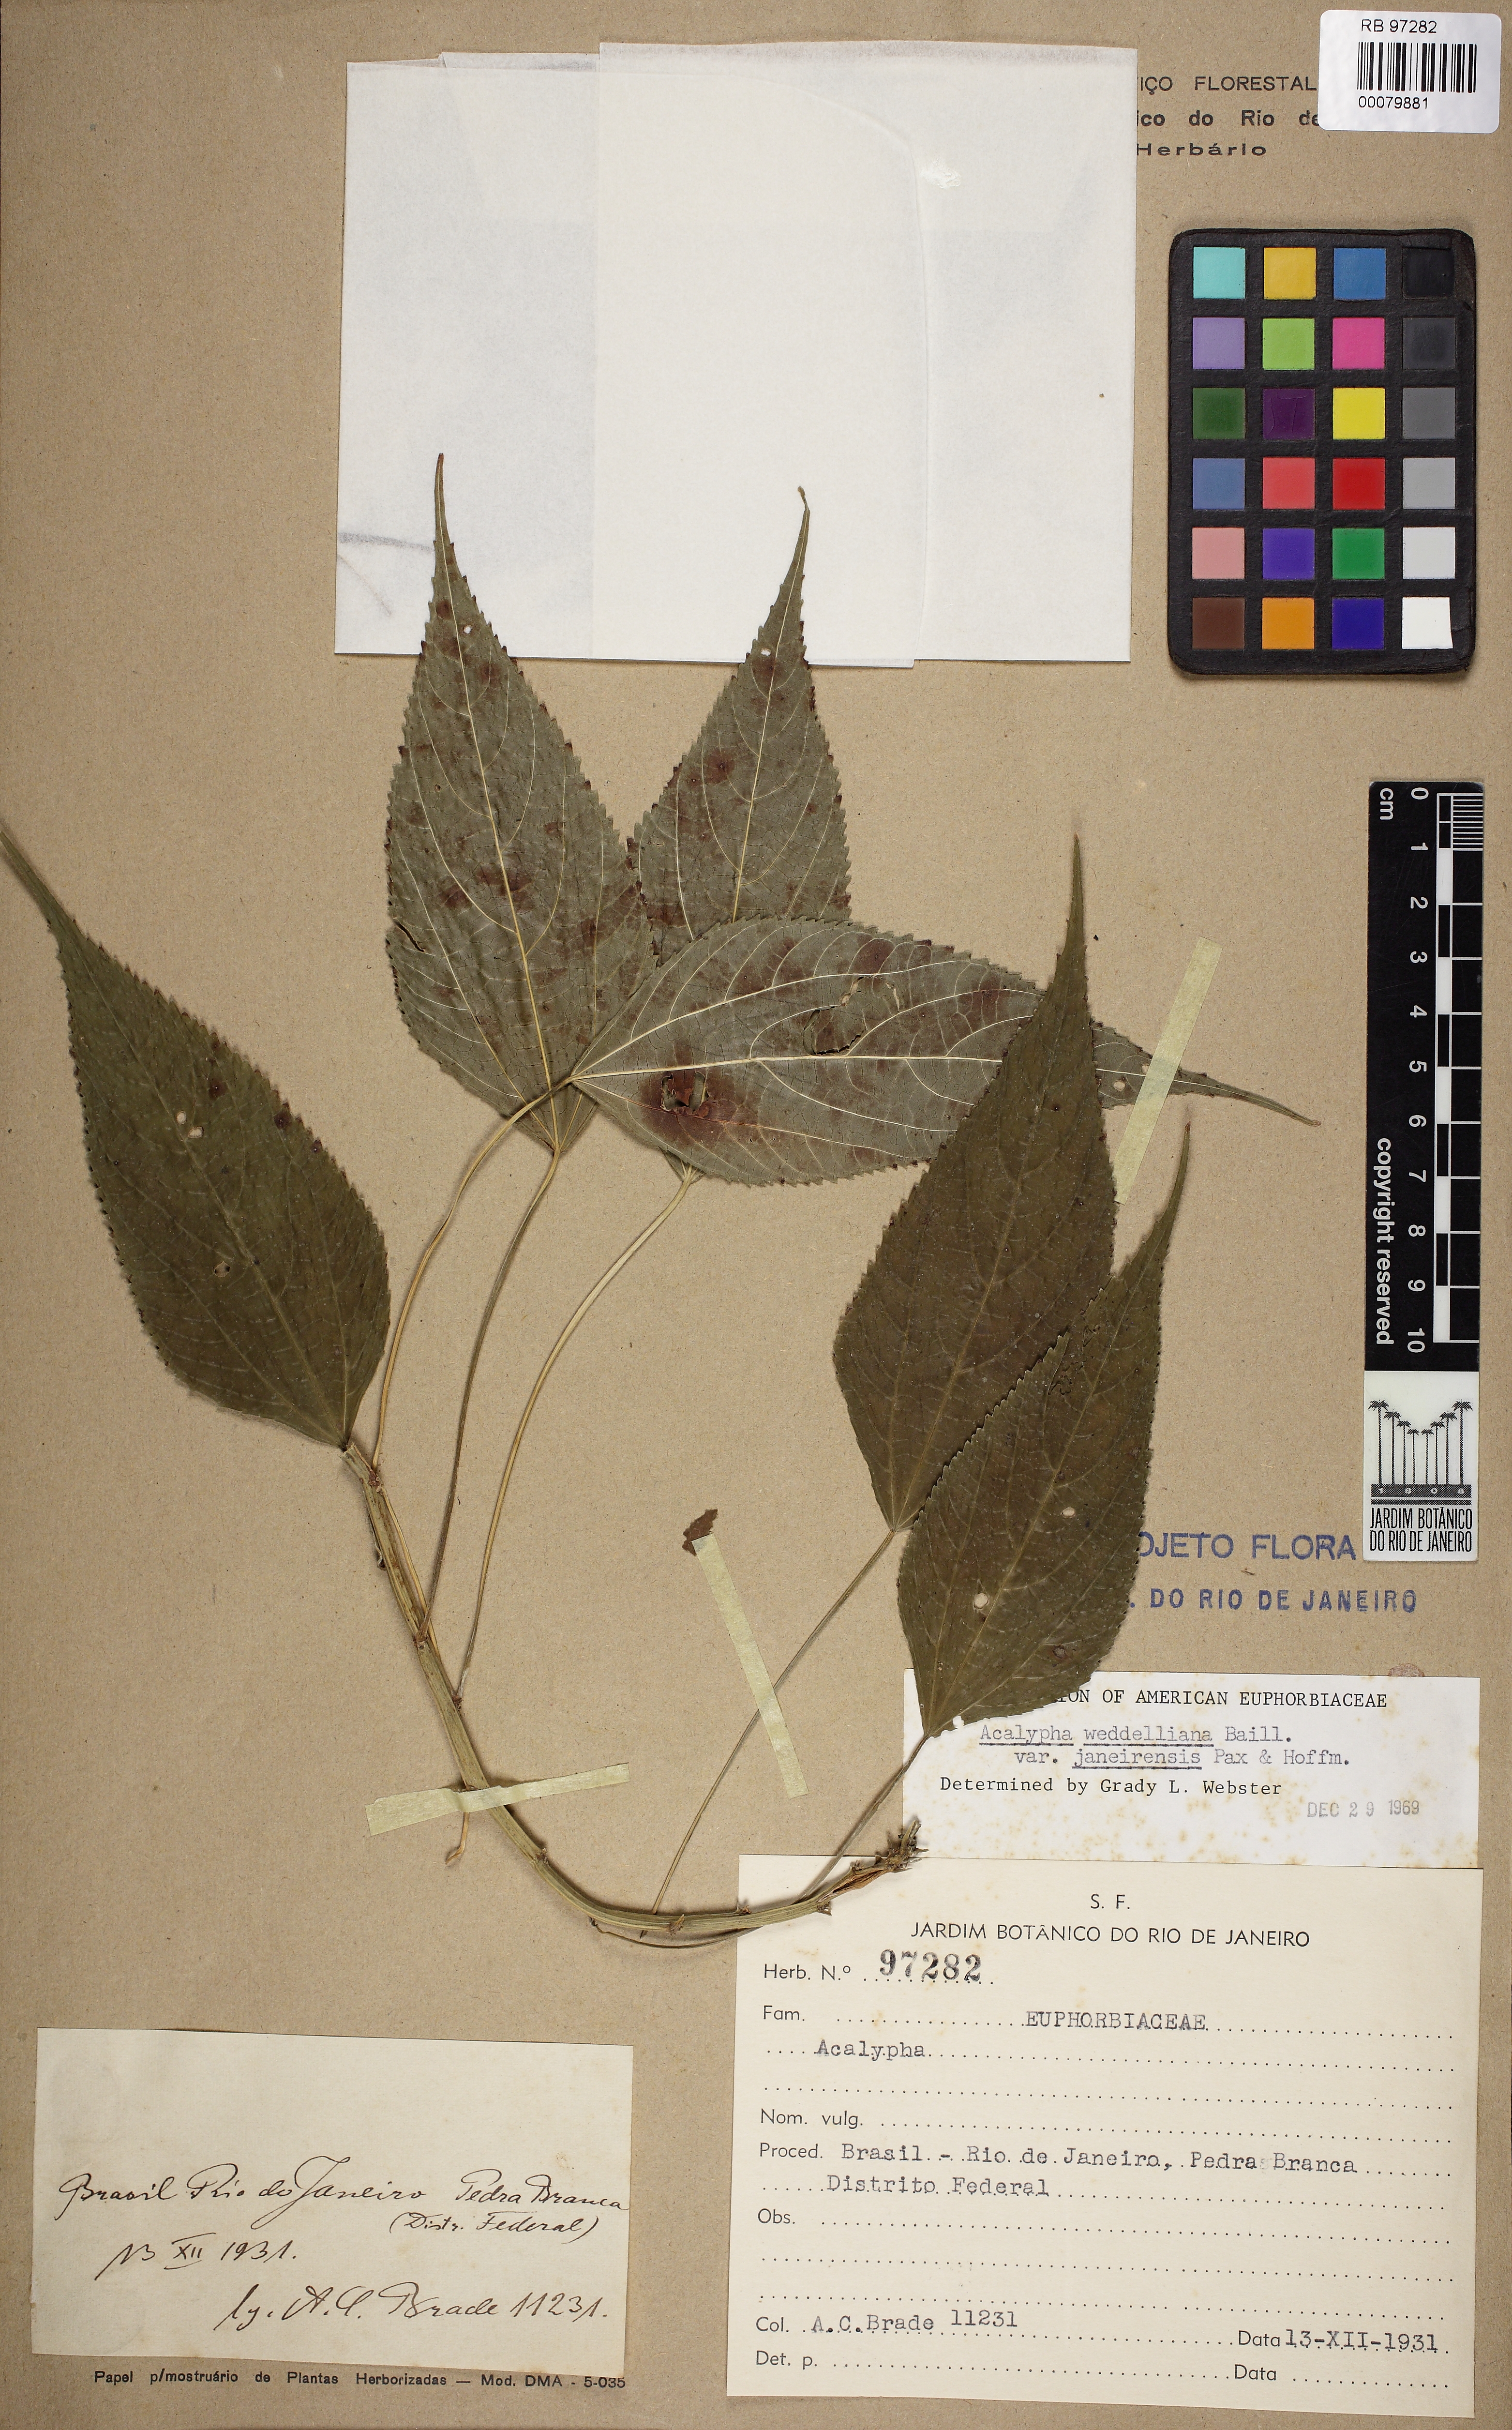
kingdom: Plantae
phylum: Tracheophyta
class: Magnoliopsida
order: Malpighiales
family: Euphorbiaceae
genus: Acalypha
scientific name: Acalypha brasiliensis
